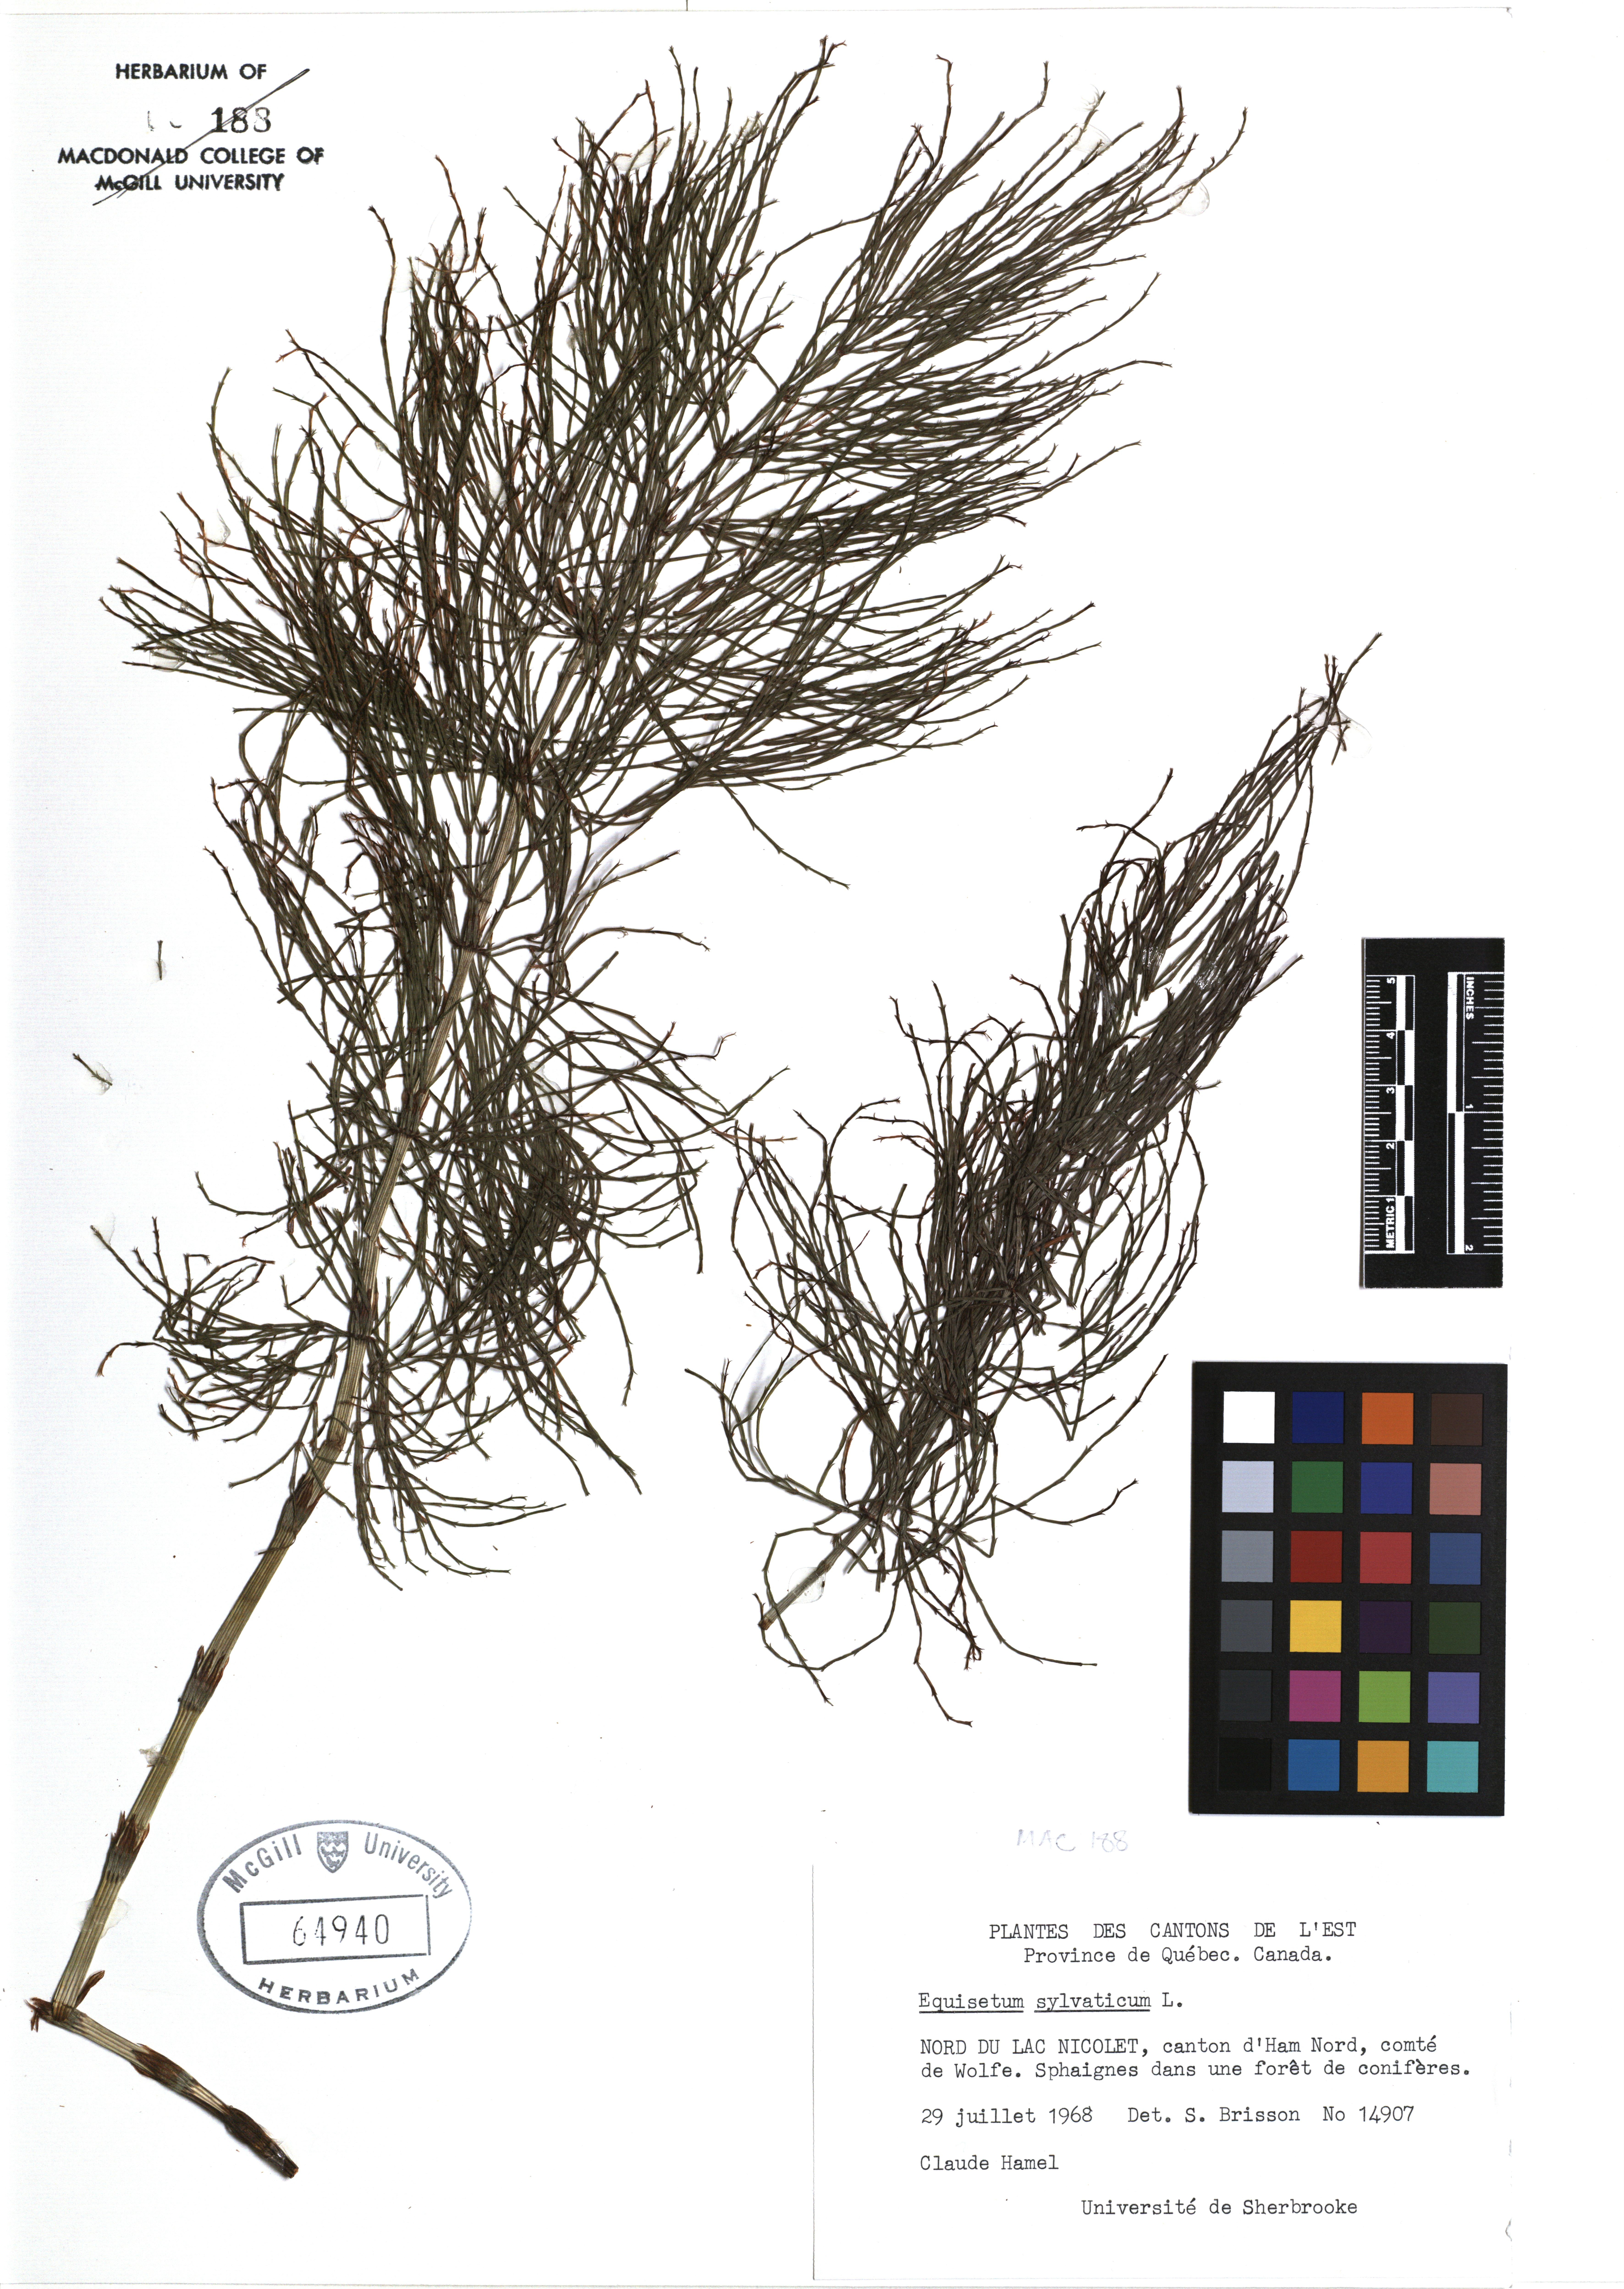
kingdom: Plantae
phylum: Tracheophyta
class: Polypodiopsida
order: Equisetales
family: Equisetaceae
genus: Equisetum
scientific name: Equisetum sylvaticum
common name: Wood horsetail
